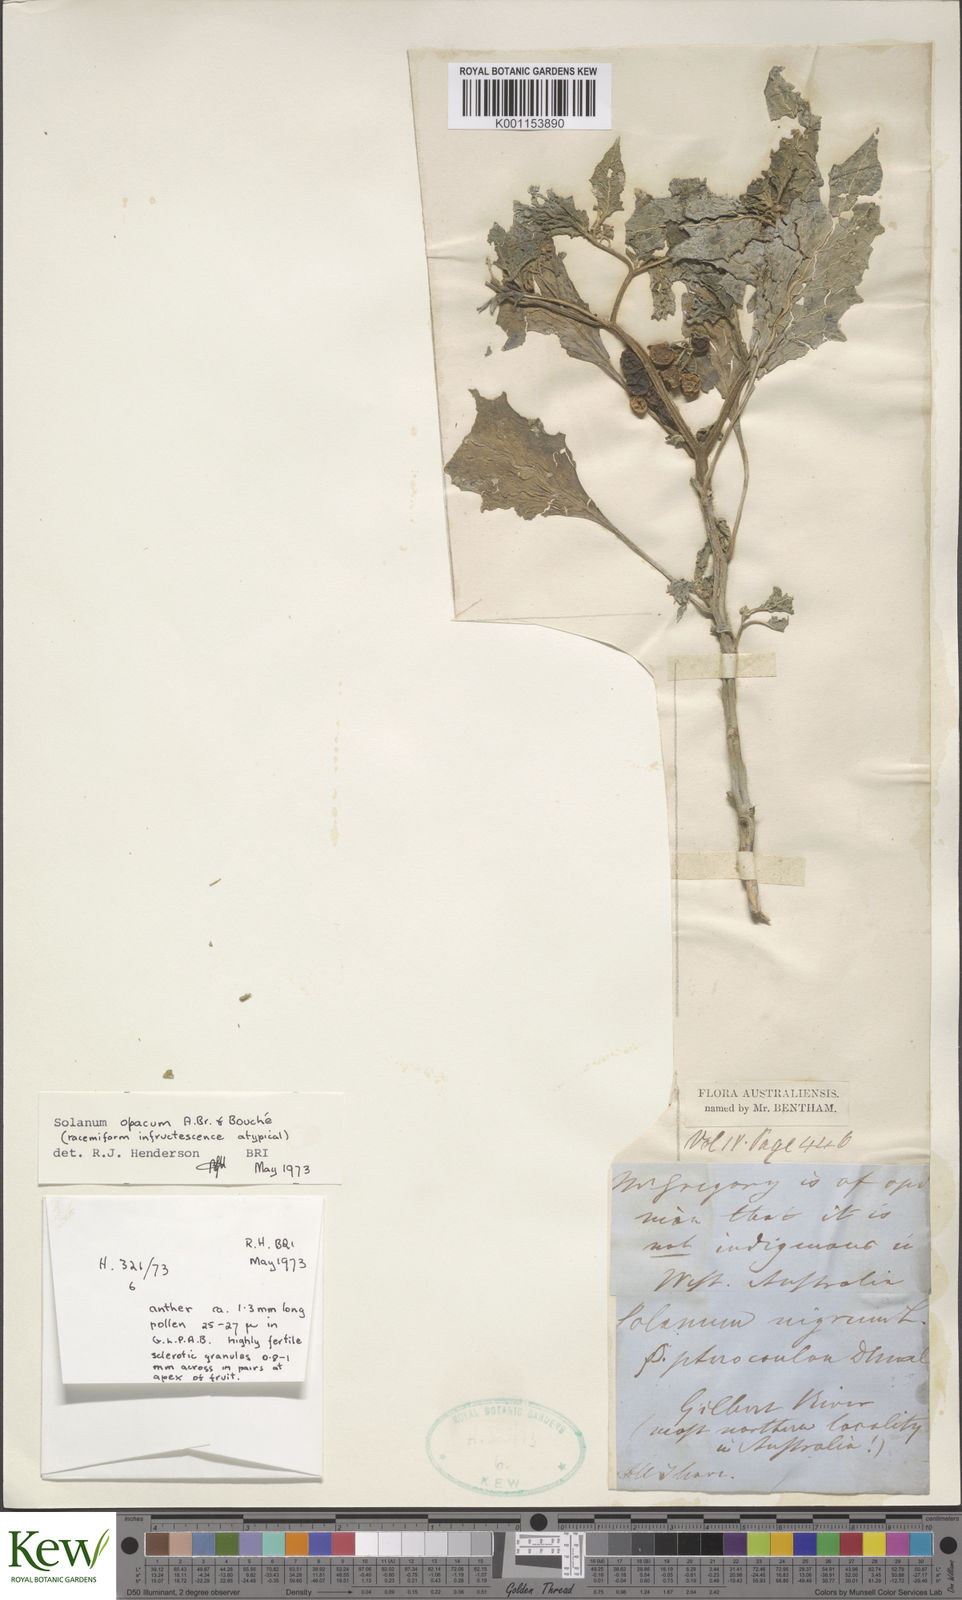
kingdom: Plantae
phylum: Tracheophyta
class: Magnoliopsida
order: Solanales
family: Solanaceae
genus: Solanum
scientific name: Solanum
